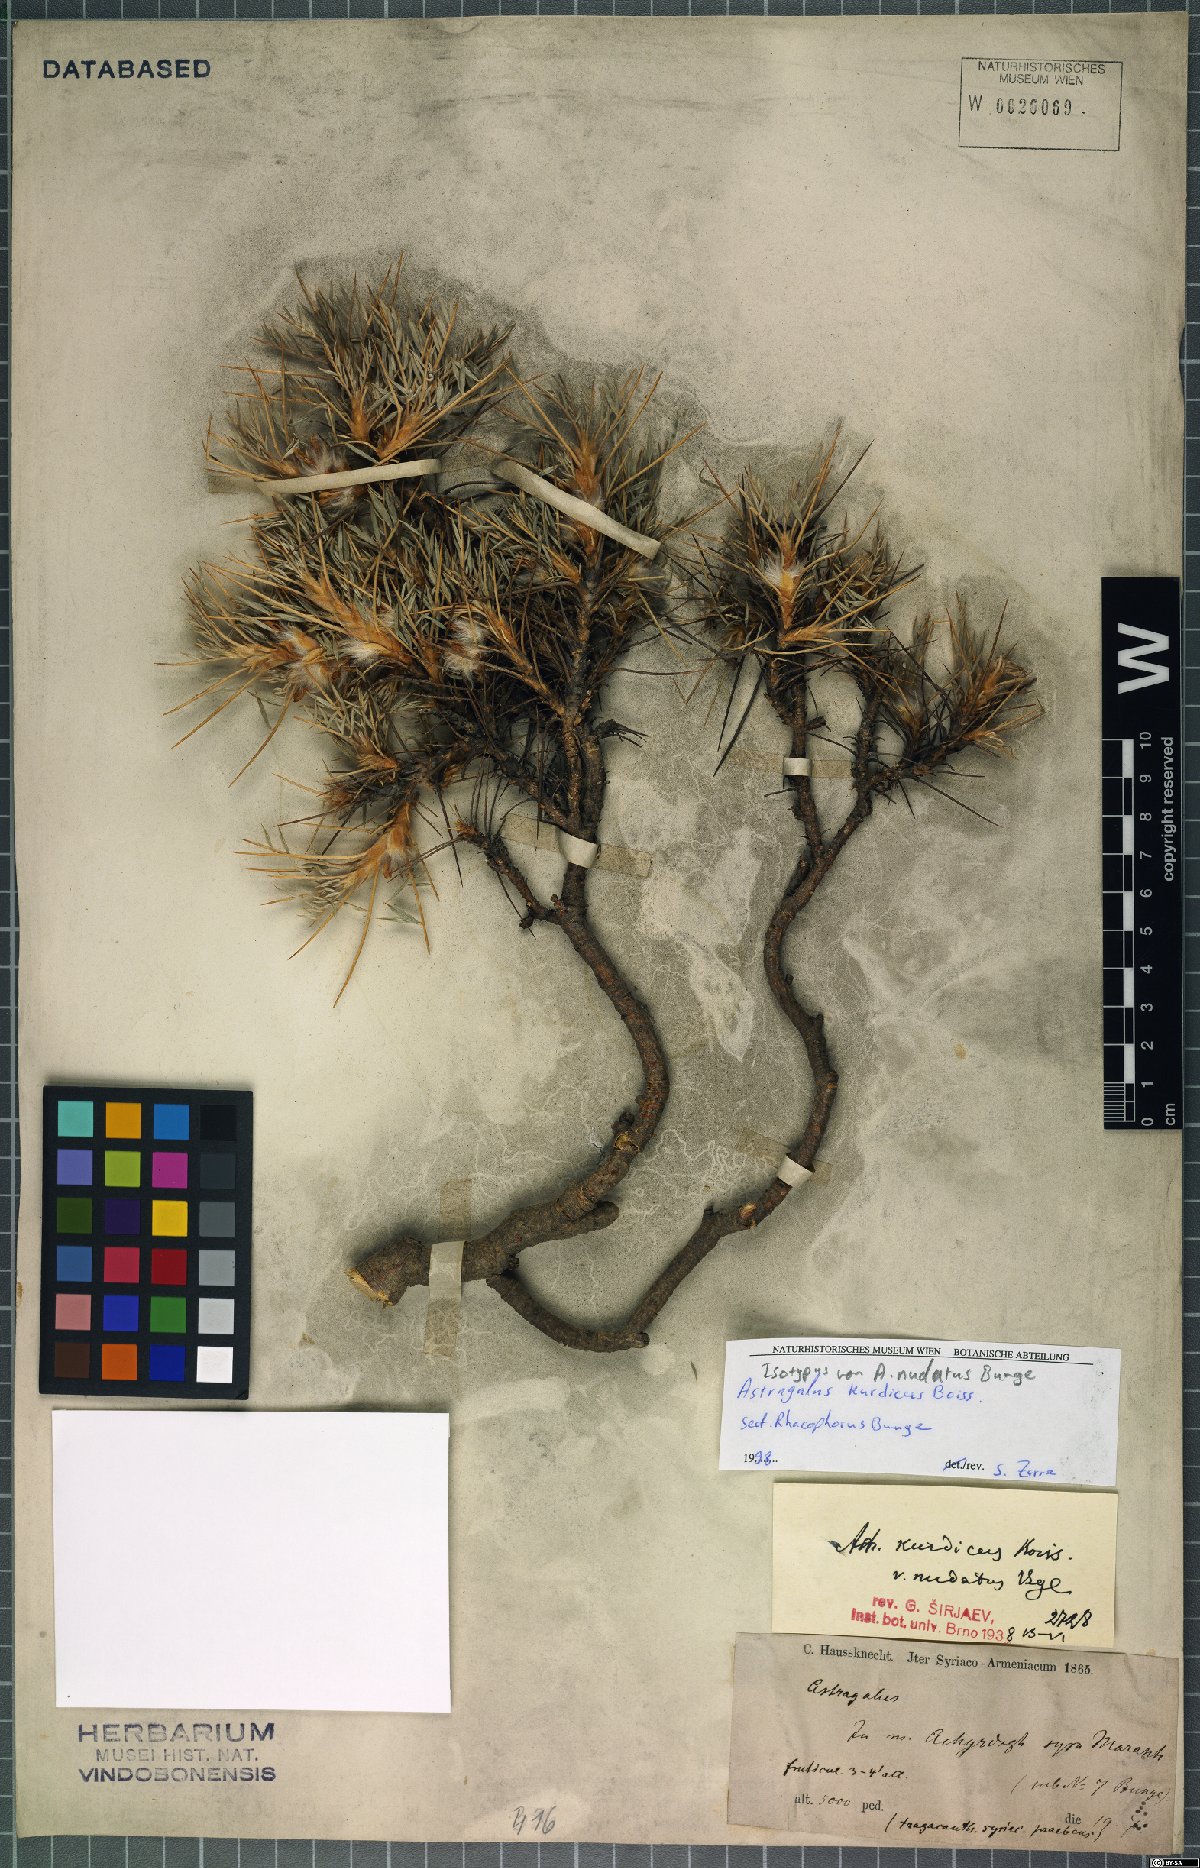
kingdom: Plantae
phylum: Tracheophyta
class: Magnoliopsida
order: Fabales
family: Fabaceae
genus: Astragalus
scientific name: Astragalus kurdicus
